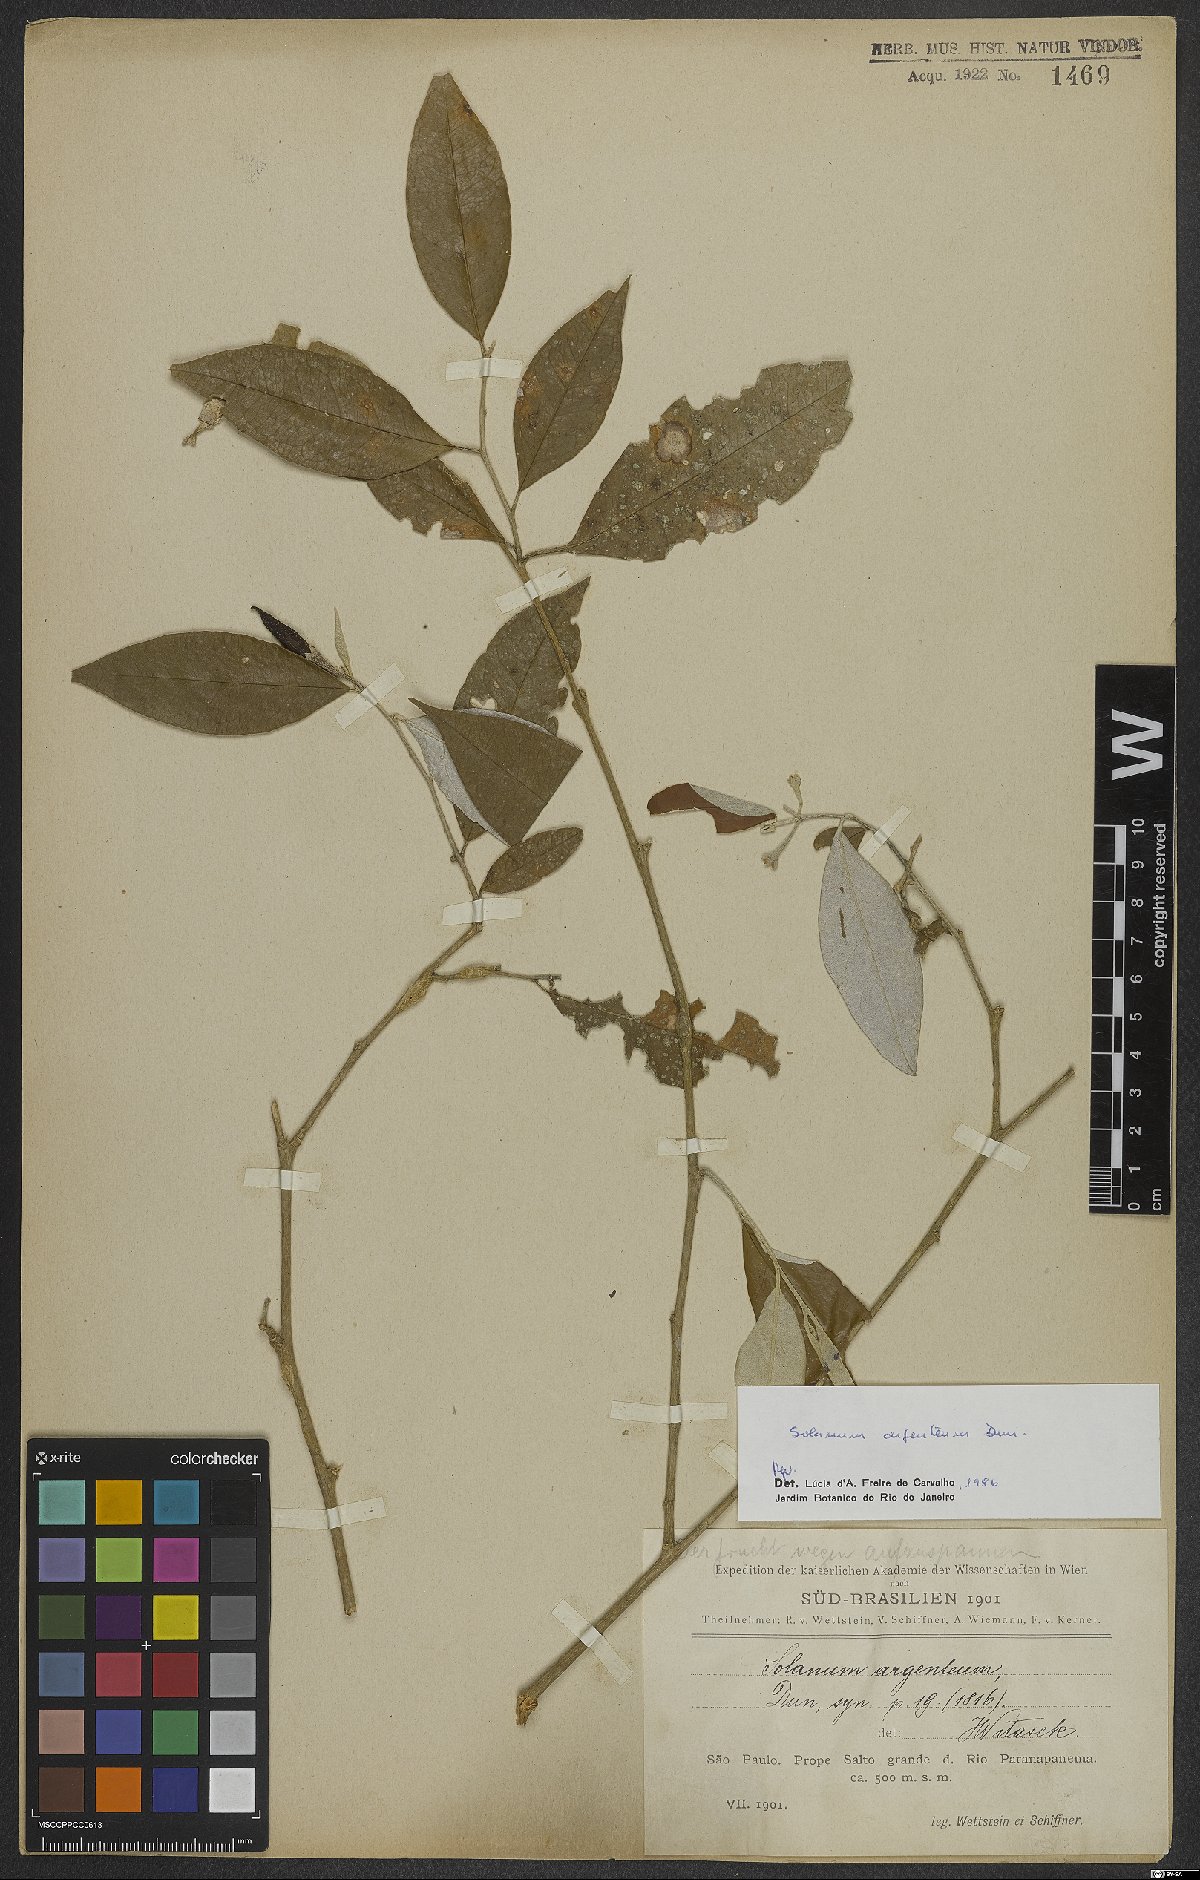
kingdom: Plantae
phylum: Tracheophyta
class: Magnoliopsida
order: Solanales
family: Solanaceae
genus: Solanum
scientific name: Solanum swartzianum
